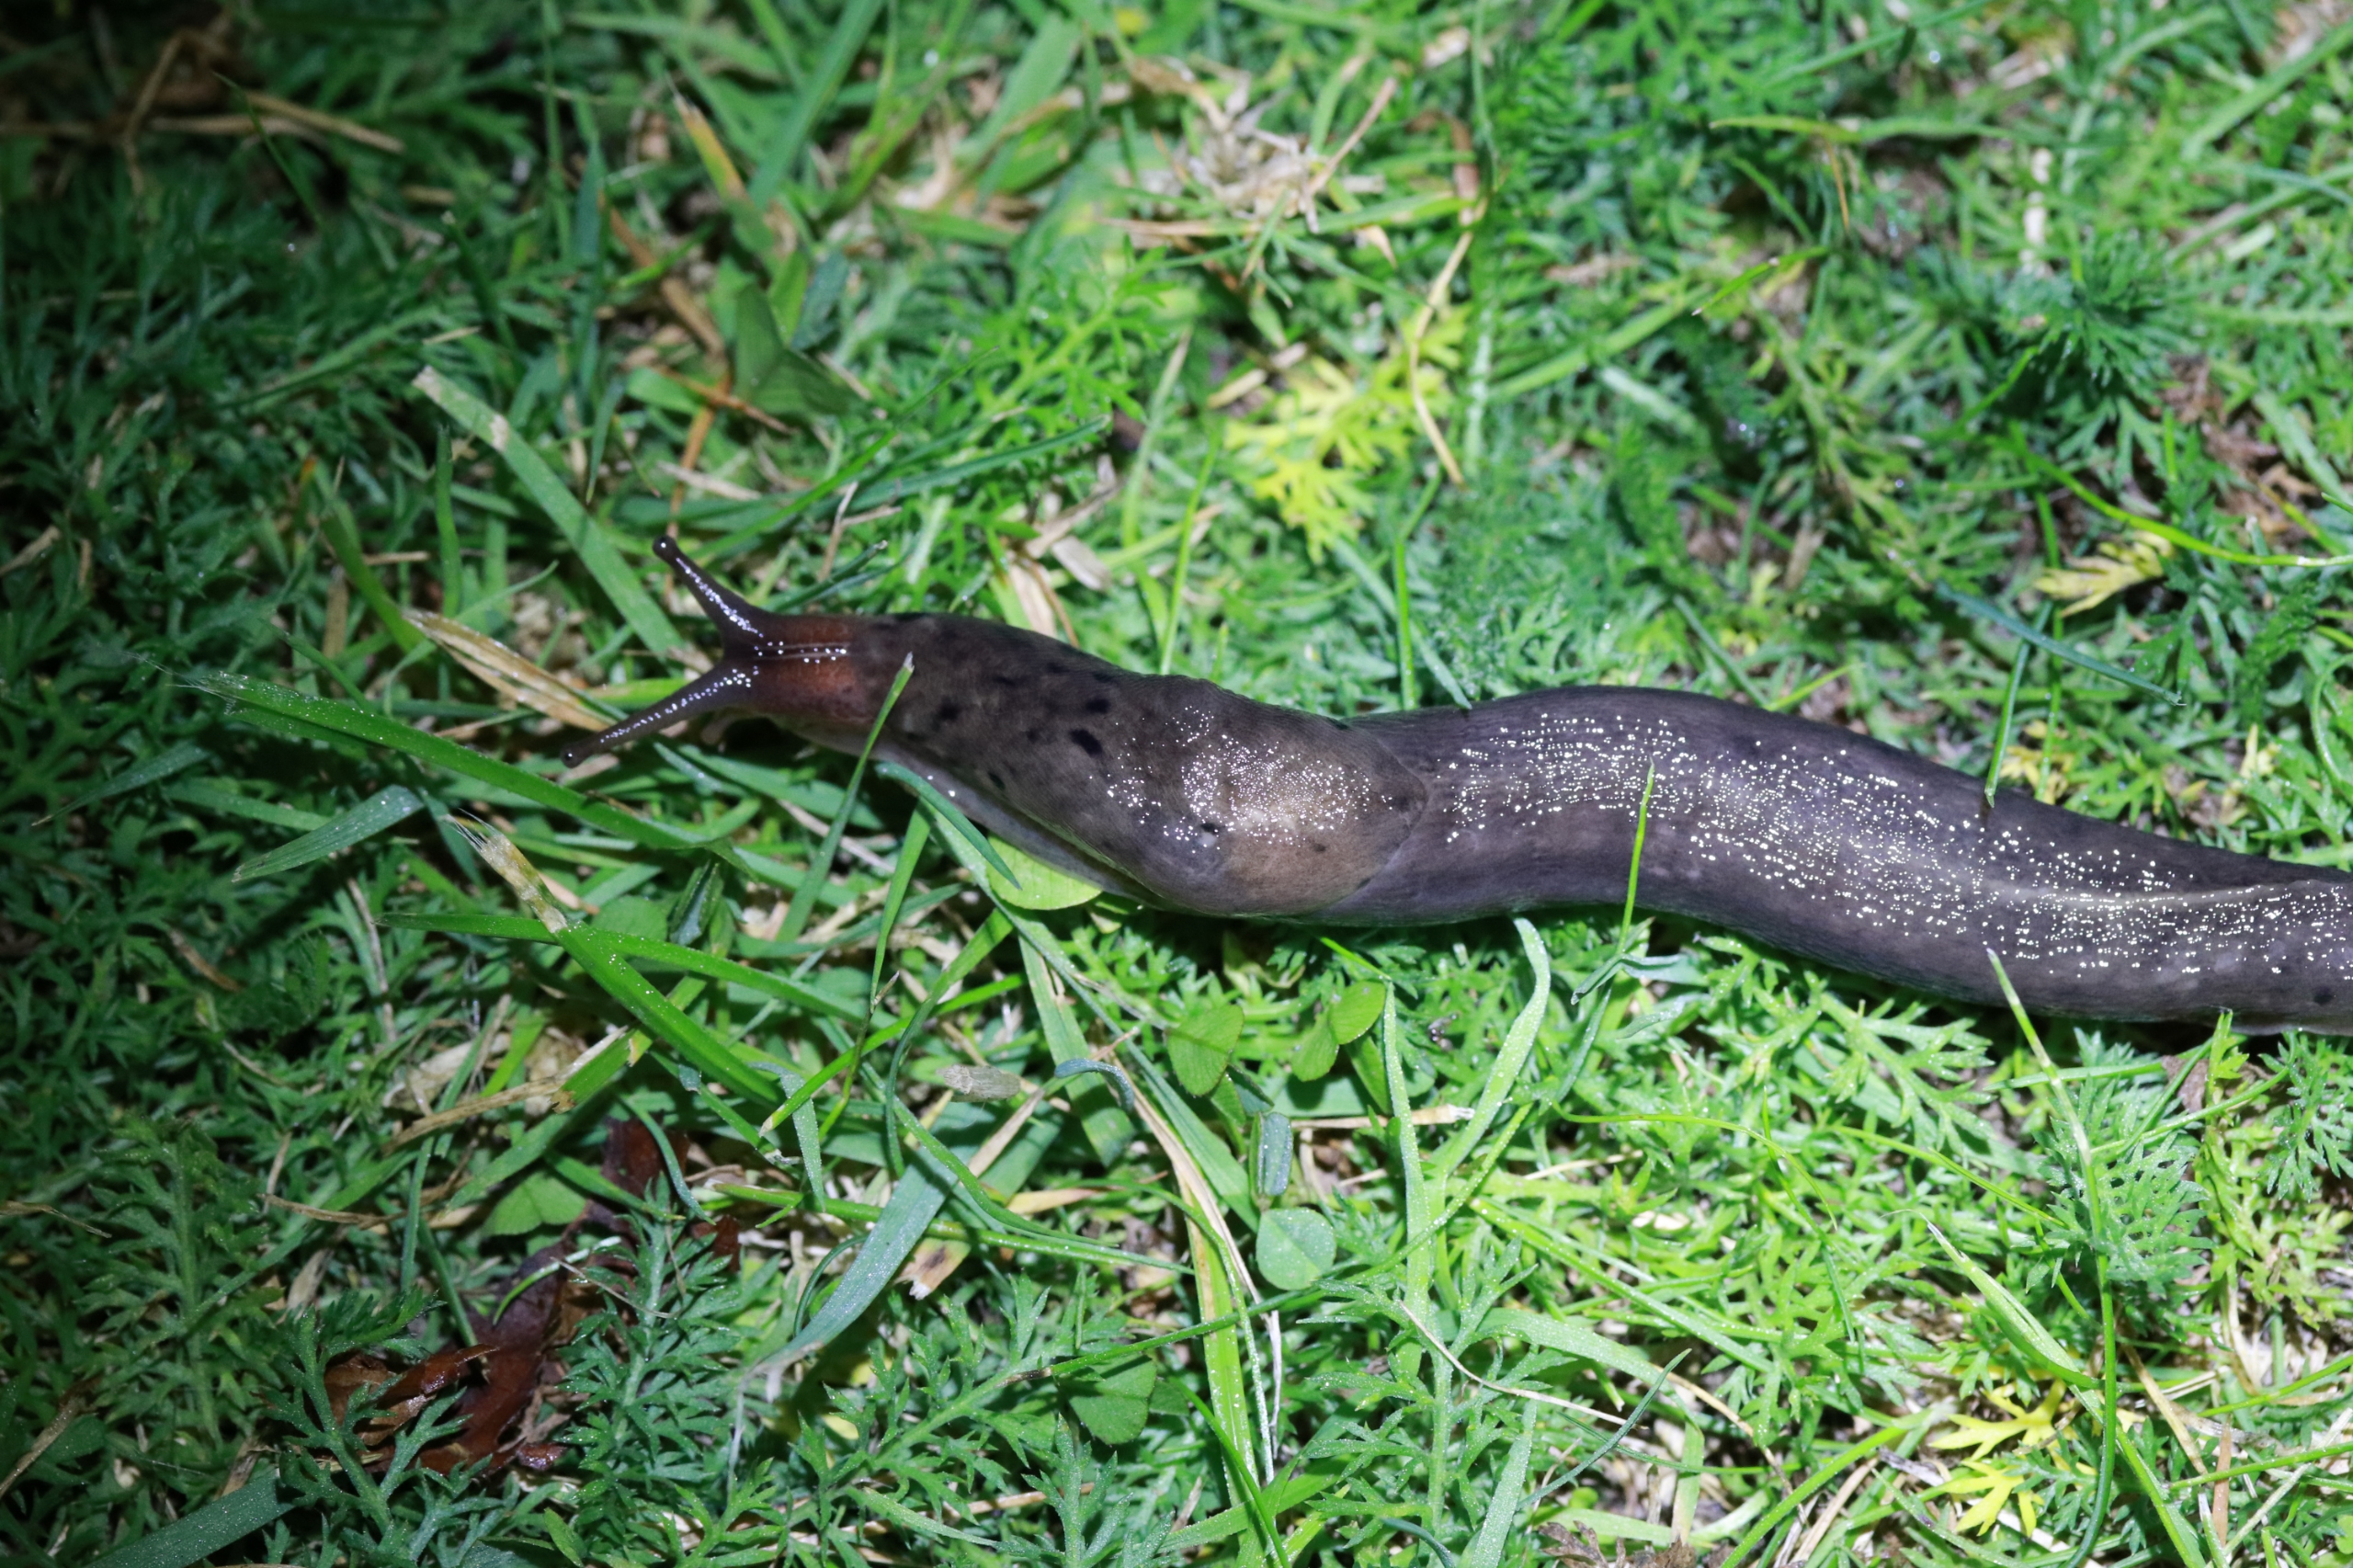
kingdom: Animalia
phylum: Mollusca
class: Gastropoda
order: Stylommatophora
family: Limacidae
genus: Limax
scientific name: Limax maximus
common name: Pantersnegl
